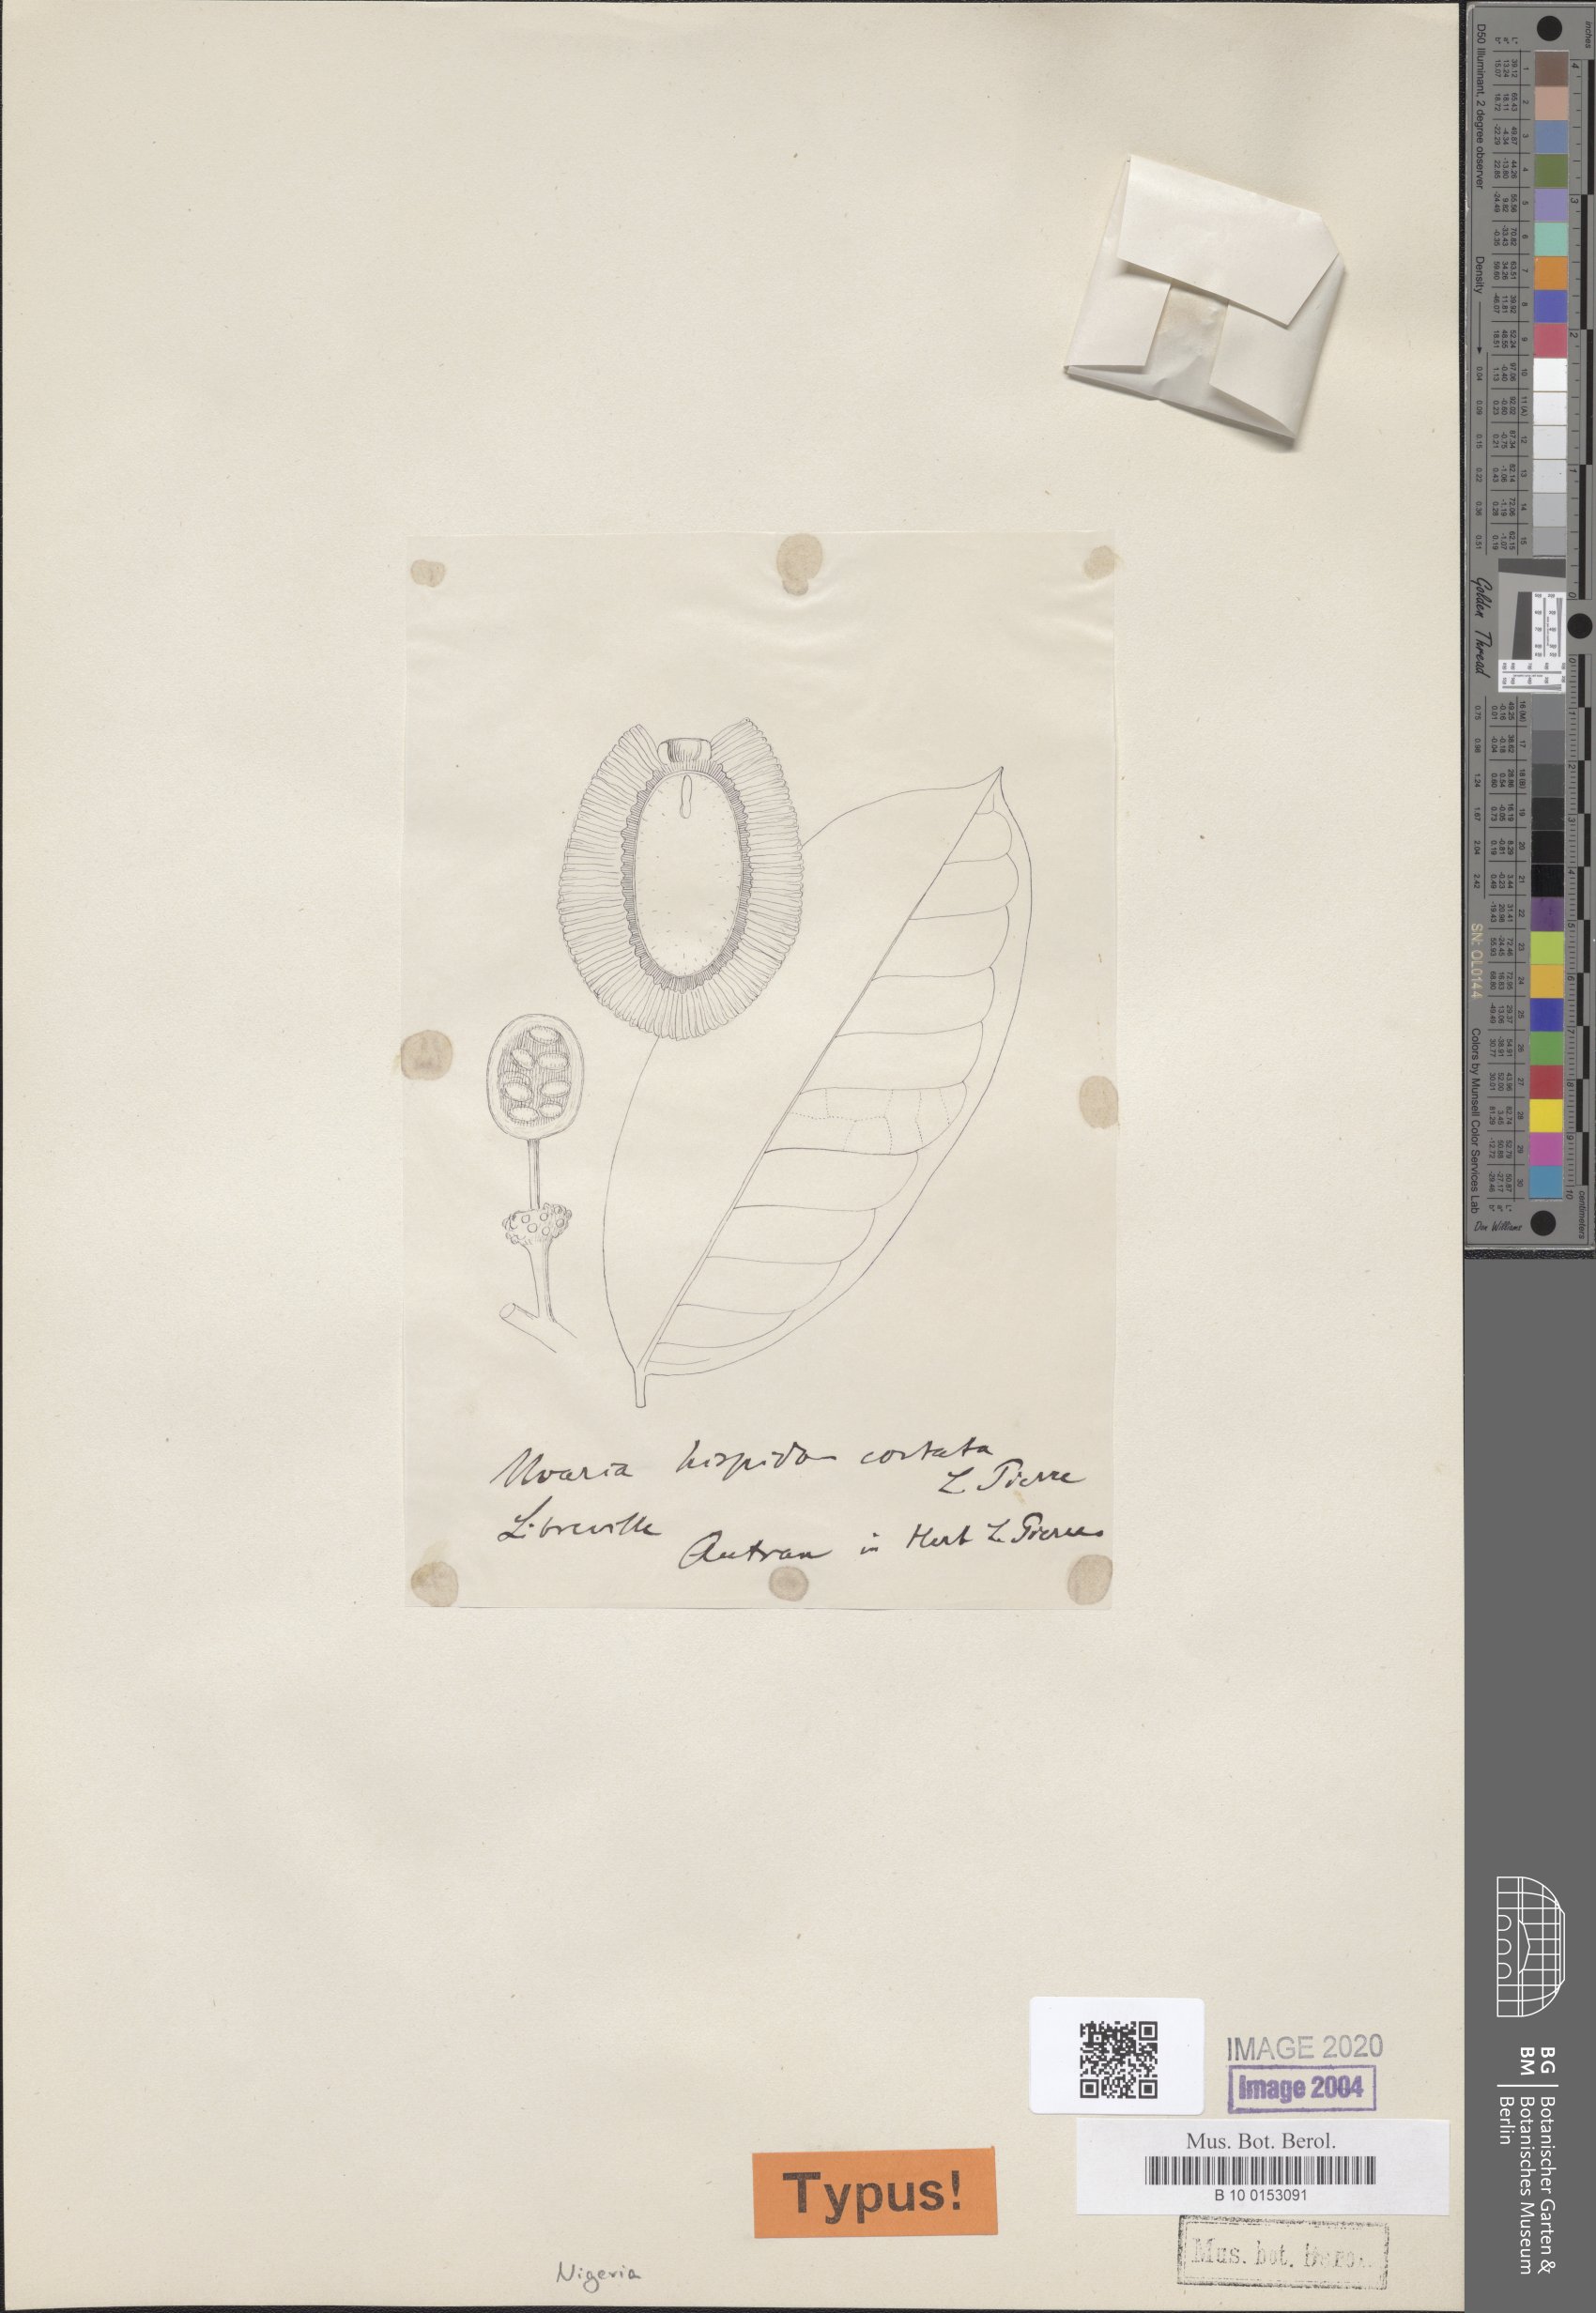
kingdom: Plantae
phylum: Tracheophyta
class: Magnoliopsida
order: Magnoliales
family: Annonaceae
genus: Uvaria
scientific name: Uvaria hispidocostata
